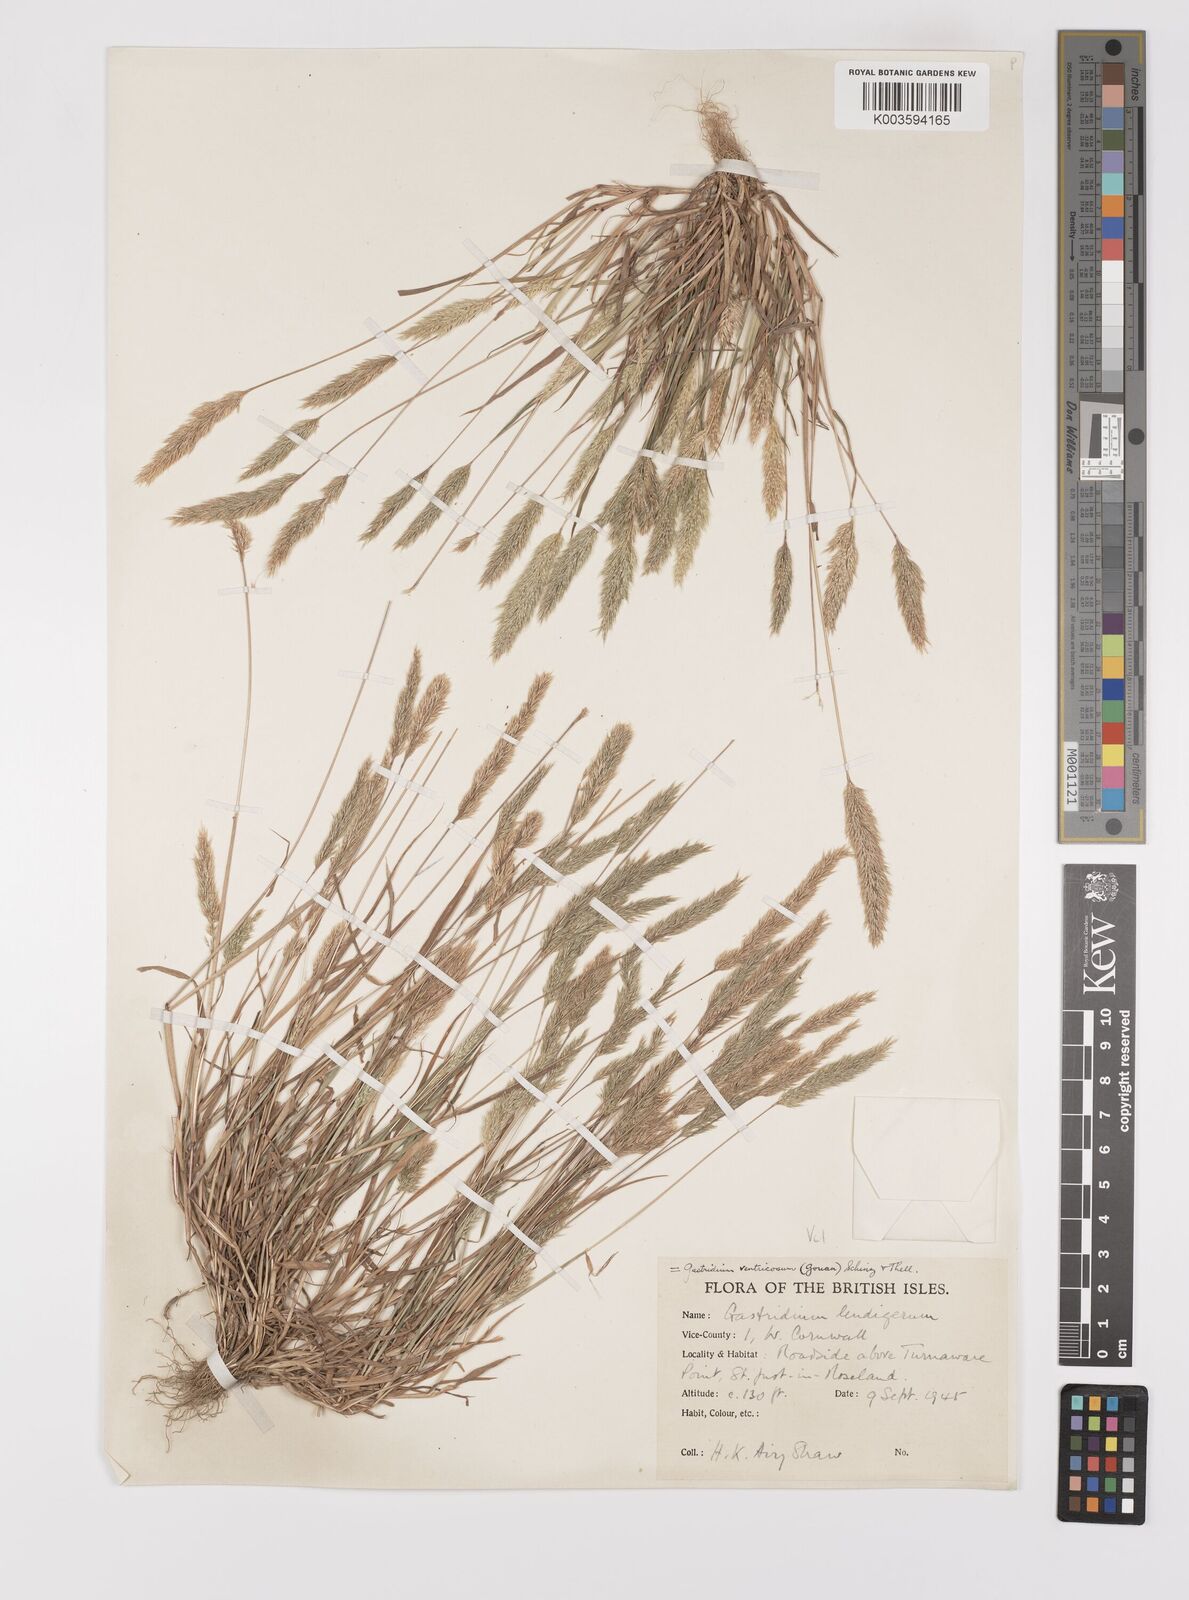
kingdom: Plantae
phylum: Tracheophyta
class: Liliopsida
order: Poales
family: Poaceae
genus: Gastridium
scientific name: Gastridium ventricosum
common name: Nit-grass
